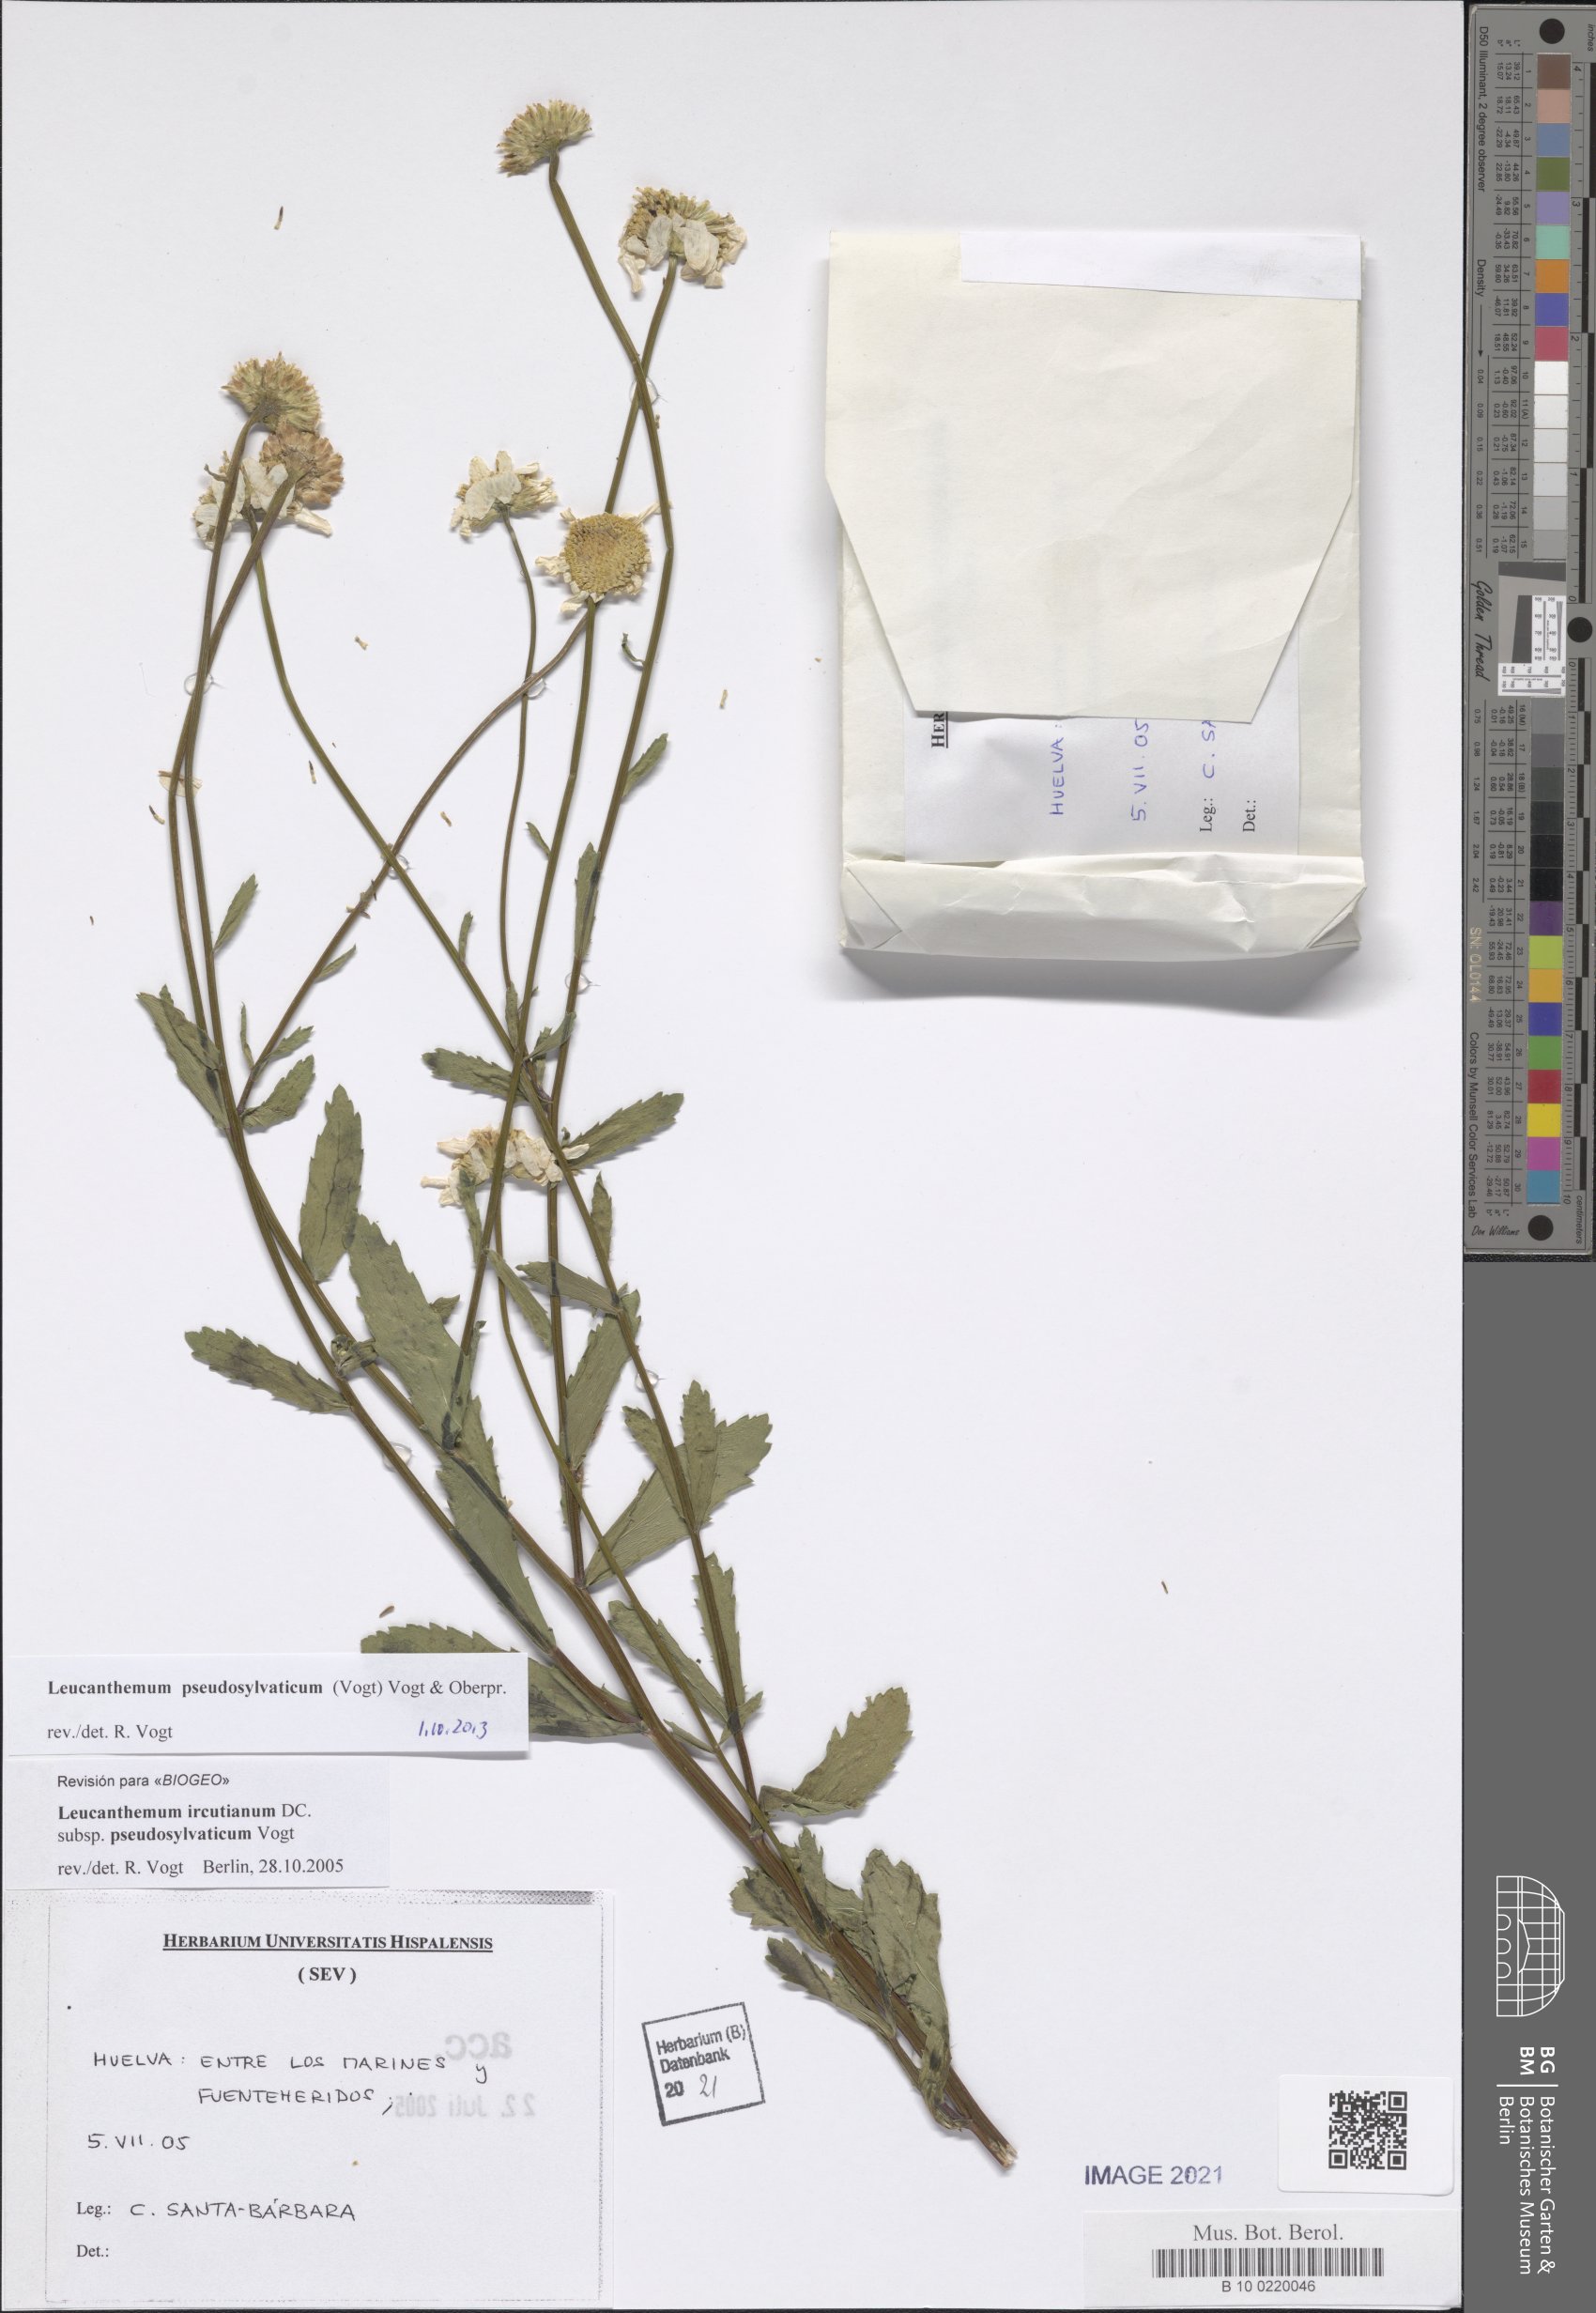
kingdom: Plantae
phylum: Tracheophyta
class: Magnoliopsida
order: Asterales
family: Asteraceae
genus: Leucanthemum
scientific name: Leucanthemum pseudosylvaticum
